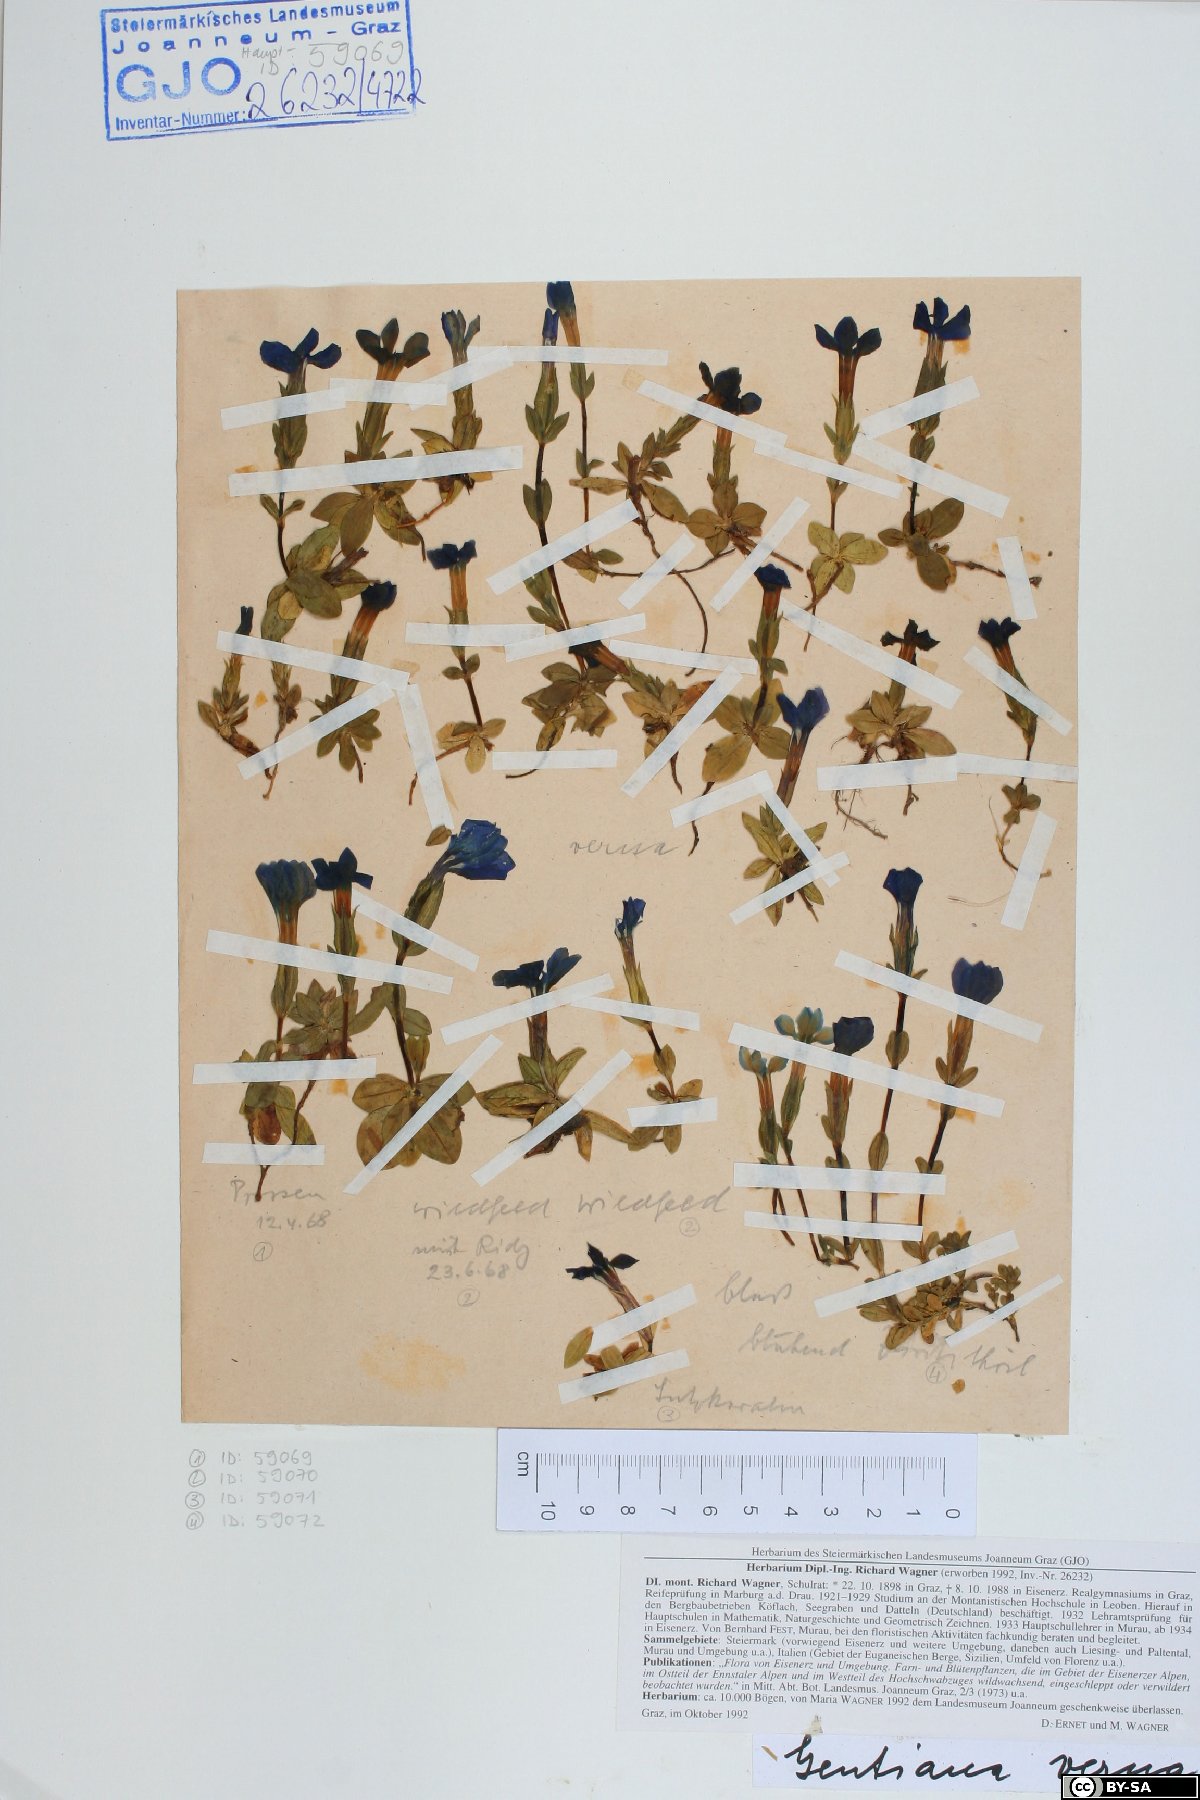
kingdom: Plantae
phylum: Tracheophyta
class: Magnoliopsida
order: Gentianales
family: Gentianaceae
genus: Gentiana
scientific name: Gentiana verna
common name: Spring gentian
